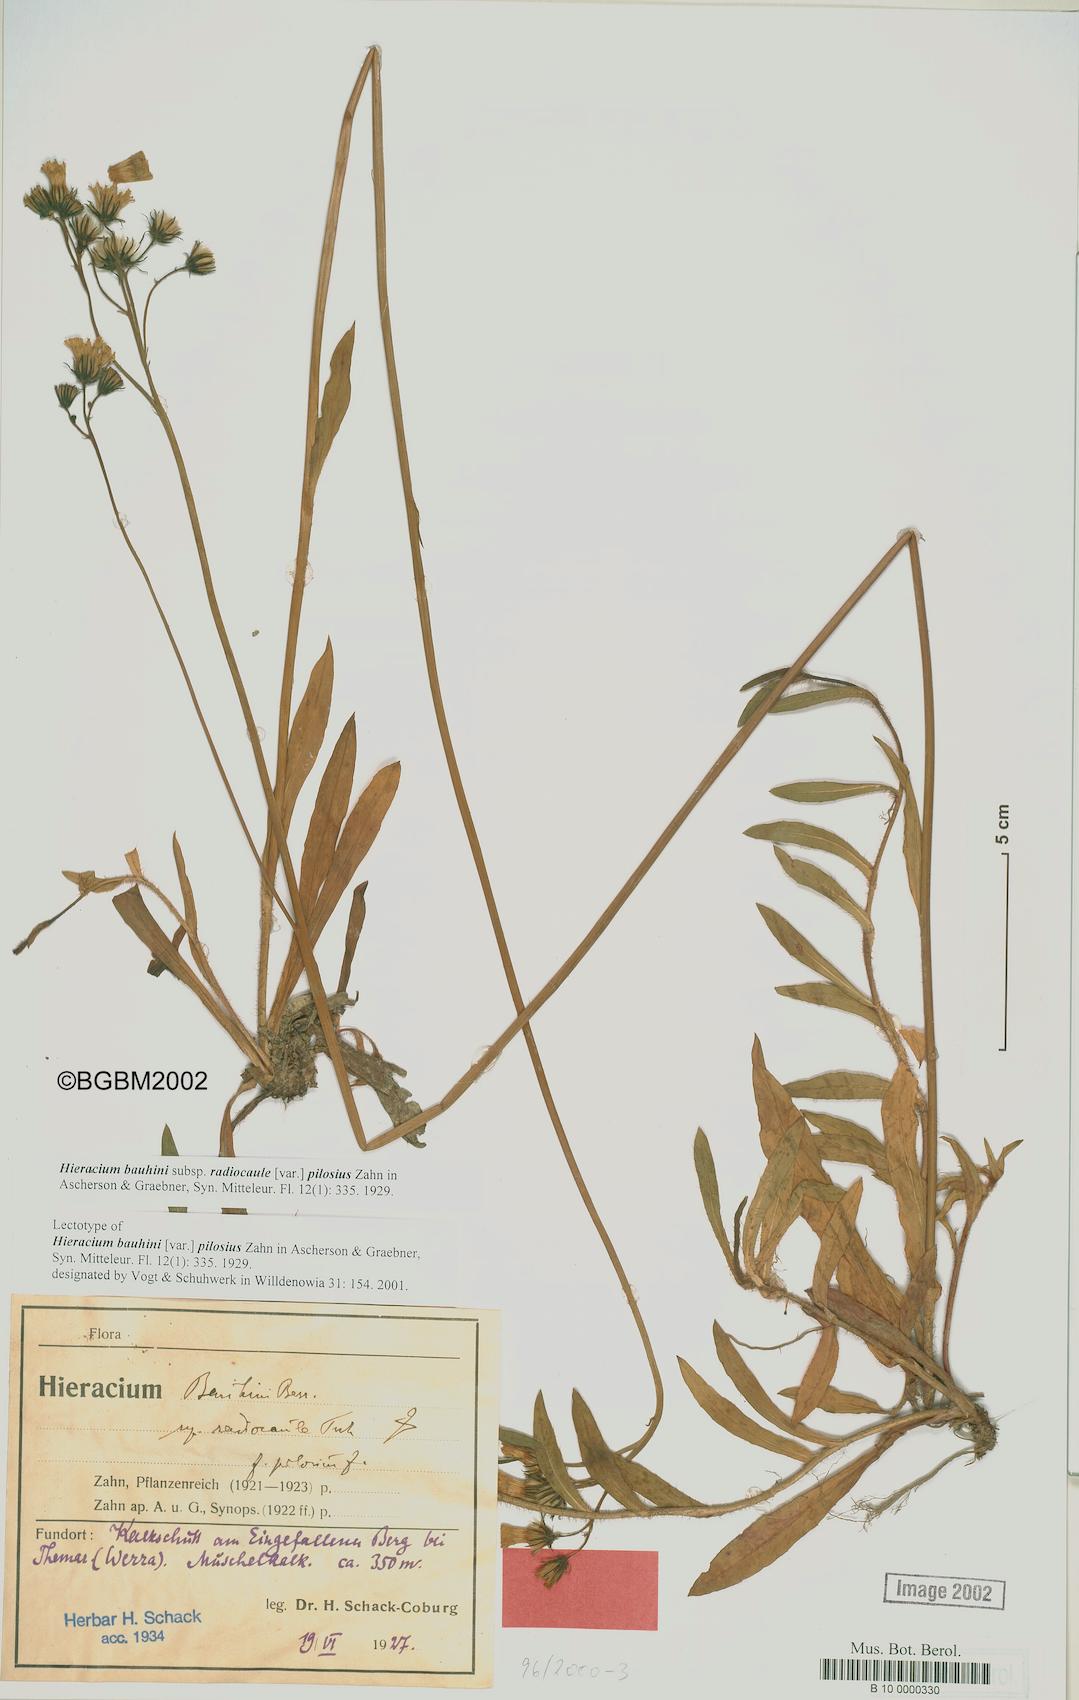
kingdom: Plantae
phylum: Tracheophyta
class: Magnoliopsida
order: Asterales
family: Asteraceae
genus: Pilosella
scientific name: Pilosella bauhini
